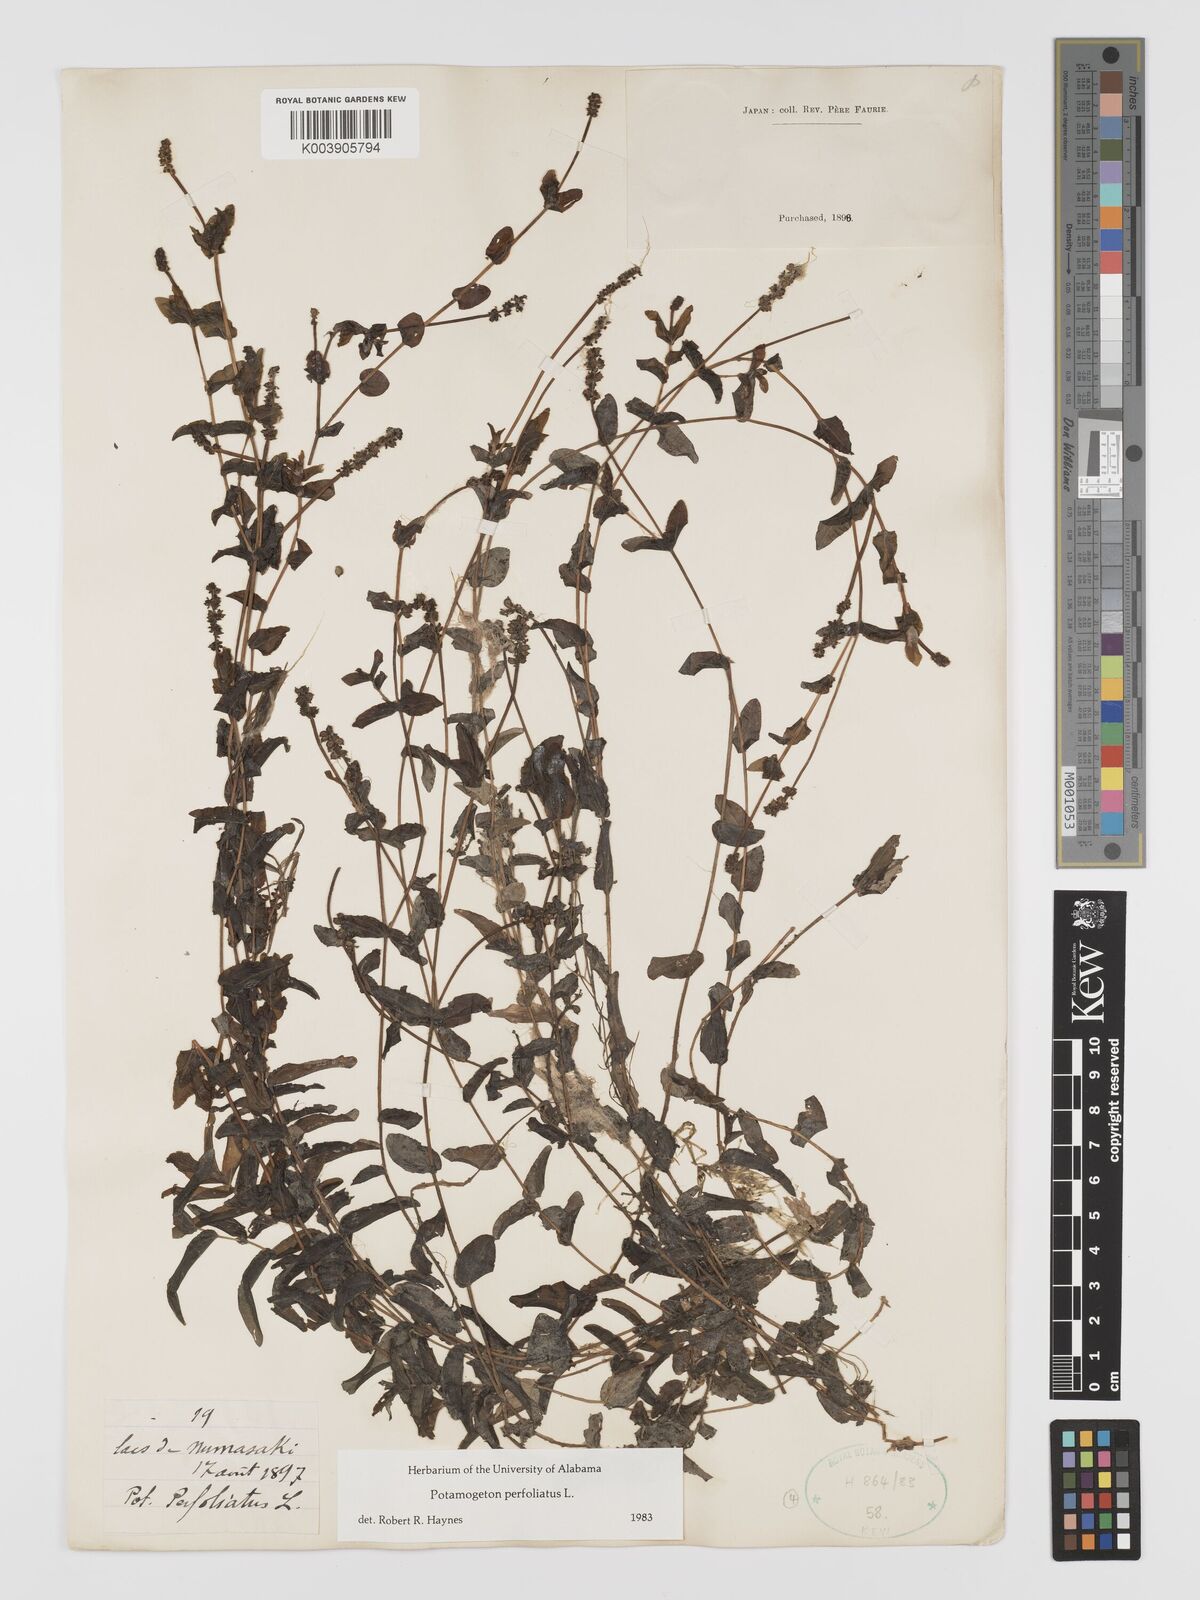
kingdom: Plantae
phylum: Tracheophyta
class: Liliopsida
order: Alismatales
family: Potamogetonaceae
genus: Potamogeton
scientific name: Potamogeton perfoliatus
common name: Perfoliate pondweed
